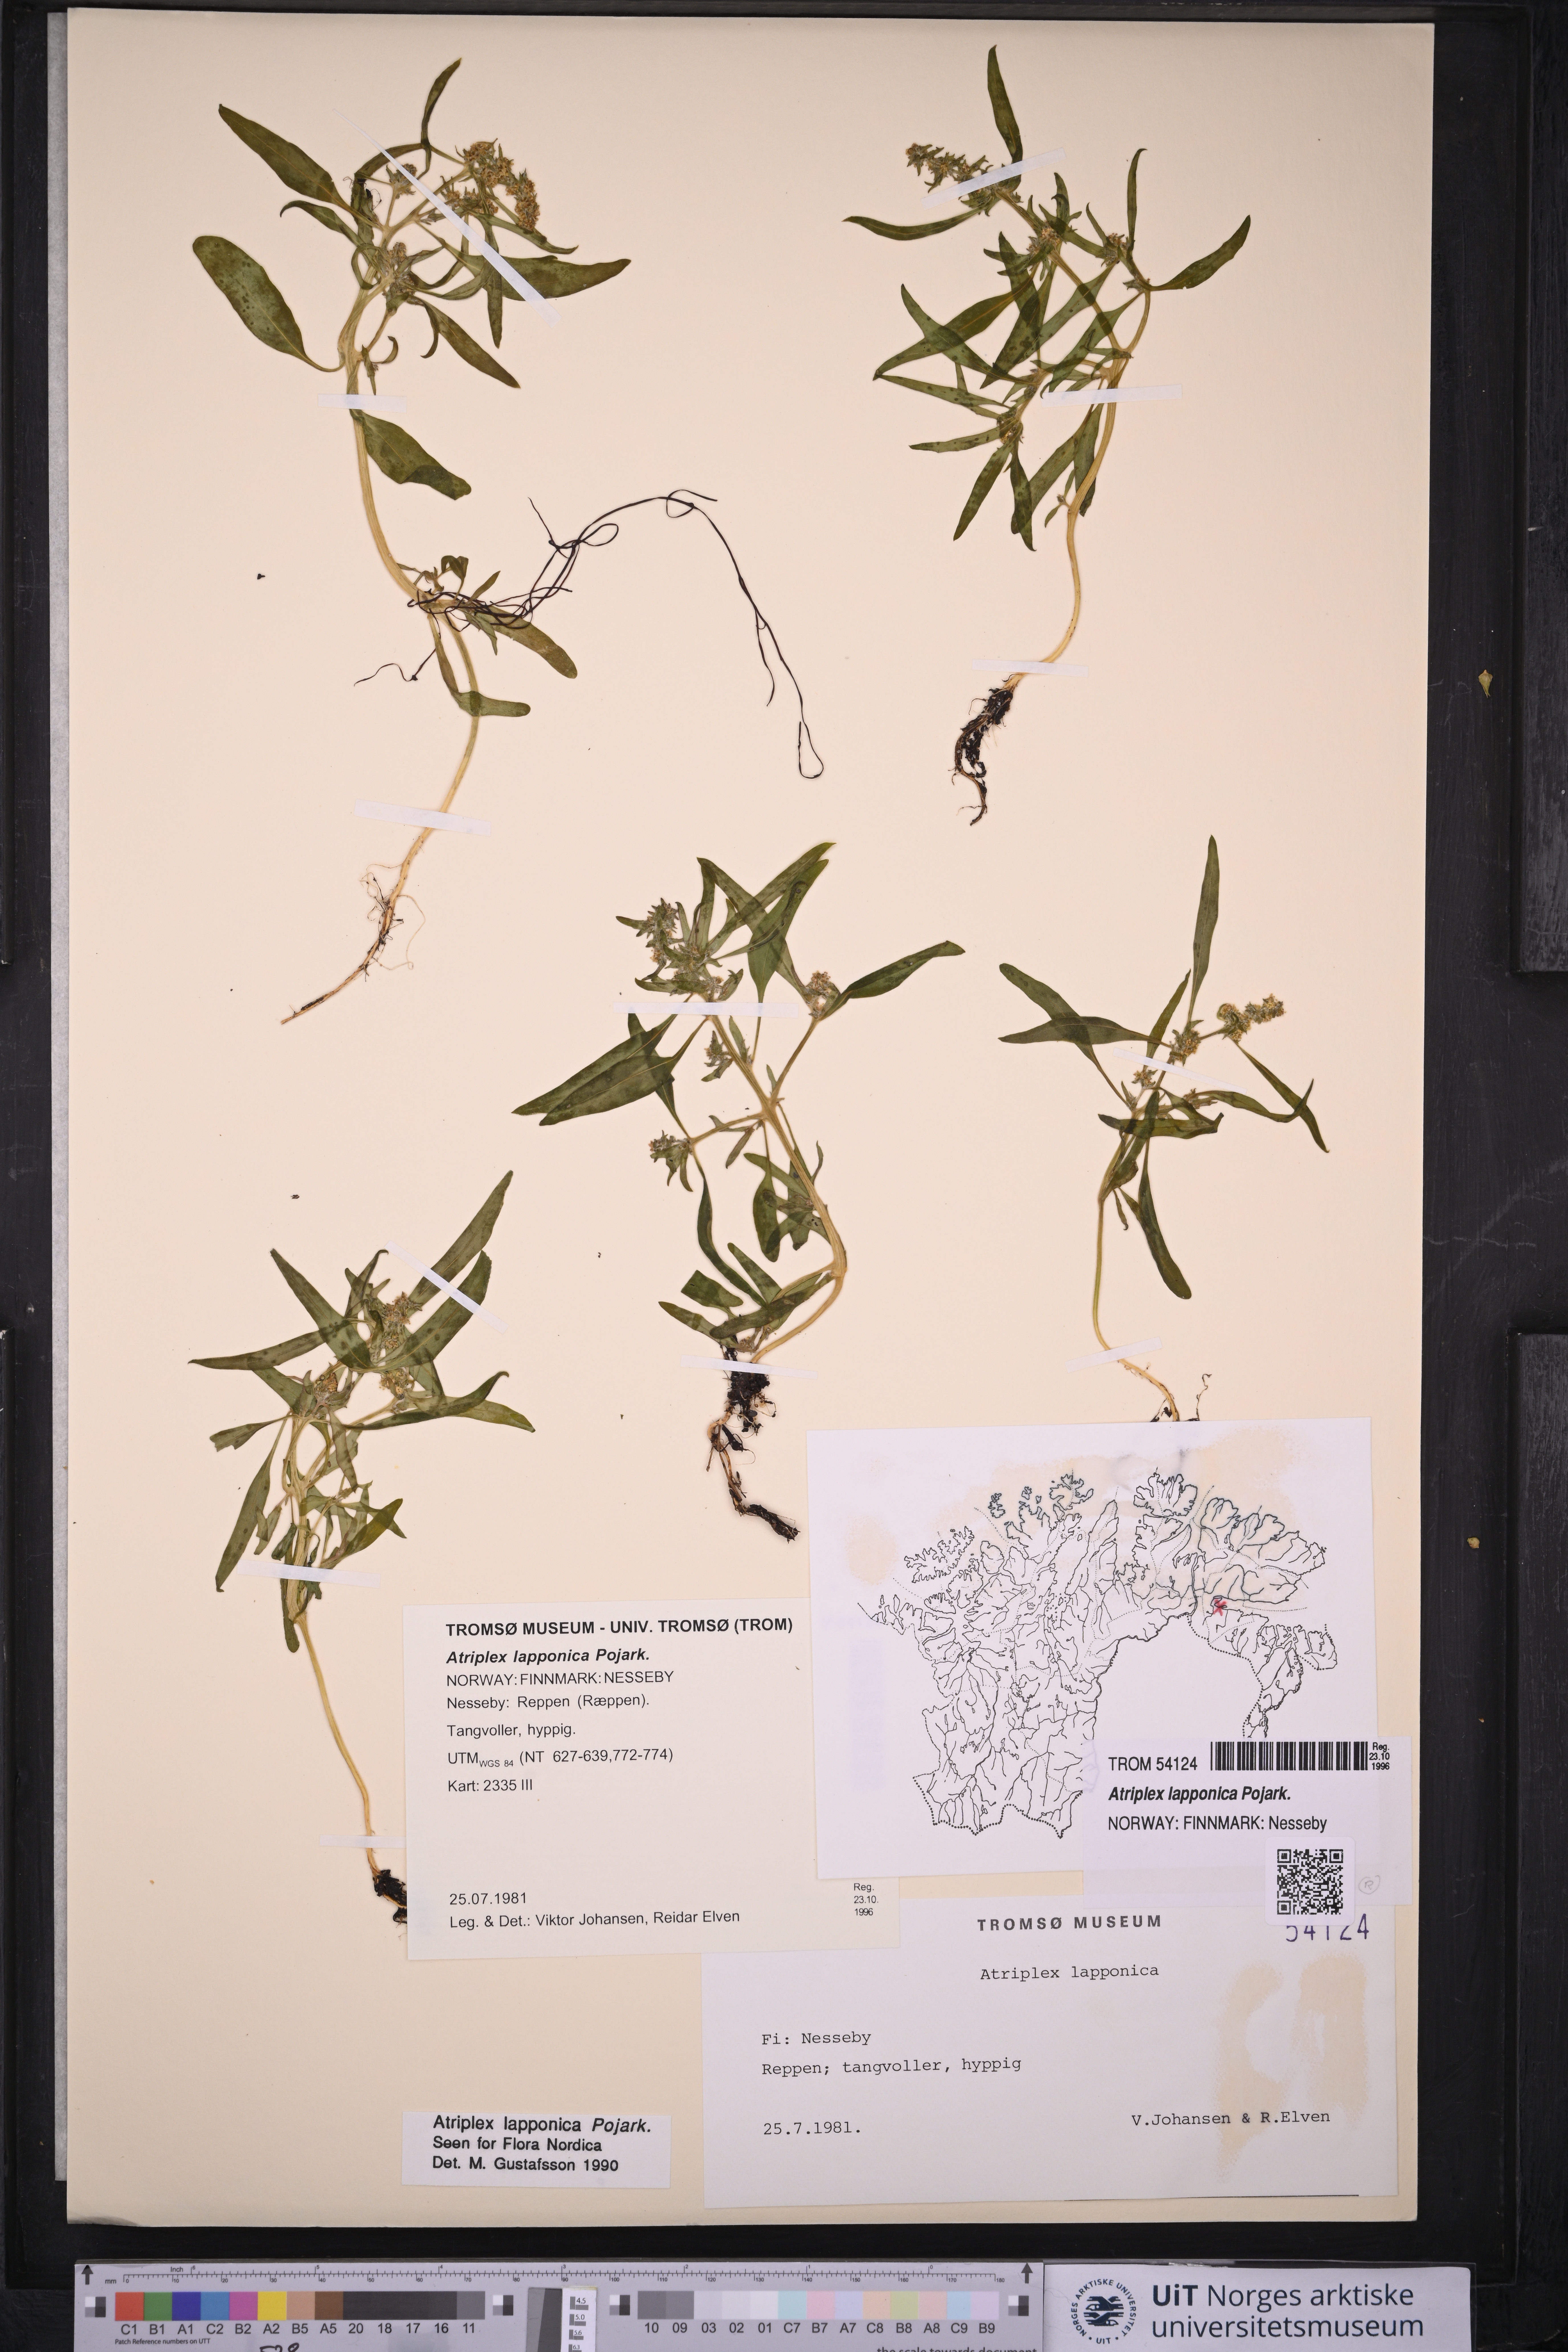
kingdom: Plantae
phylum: Tracheophyta
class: Magnoliopsida
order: Caryophyllales
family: Amaranthaceae
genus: Atriplex
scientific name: Atriplex nudicaulis
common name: Baltic orache
